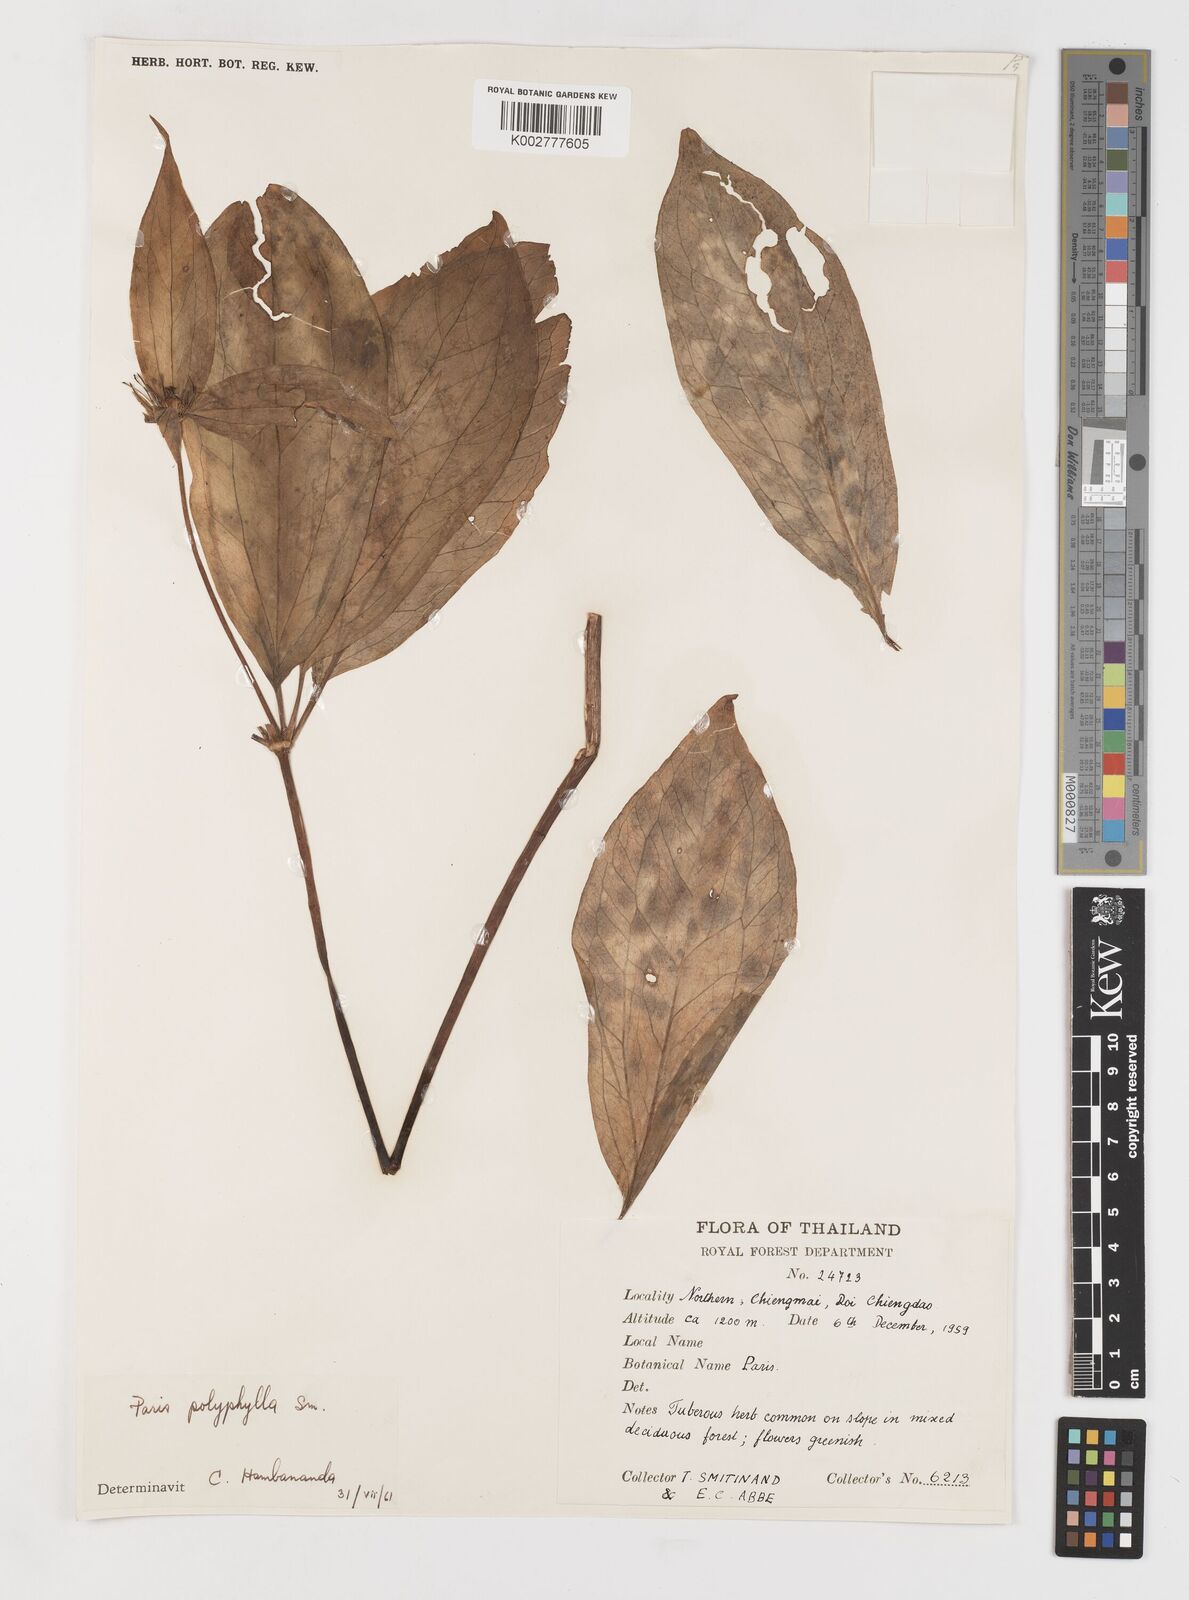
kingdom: Plantae
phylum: Tracheophyta
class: Liliopsida
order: Liliales
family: Melanthiaceae
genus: Paris
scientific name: Paris polyphylla
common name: Love apple
